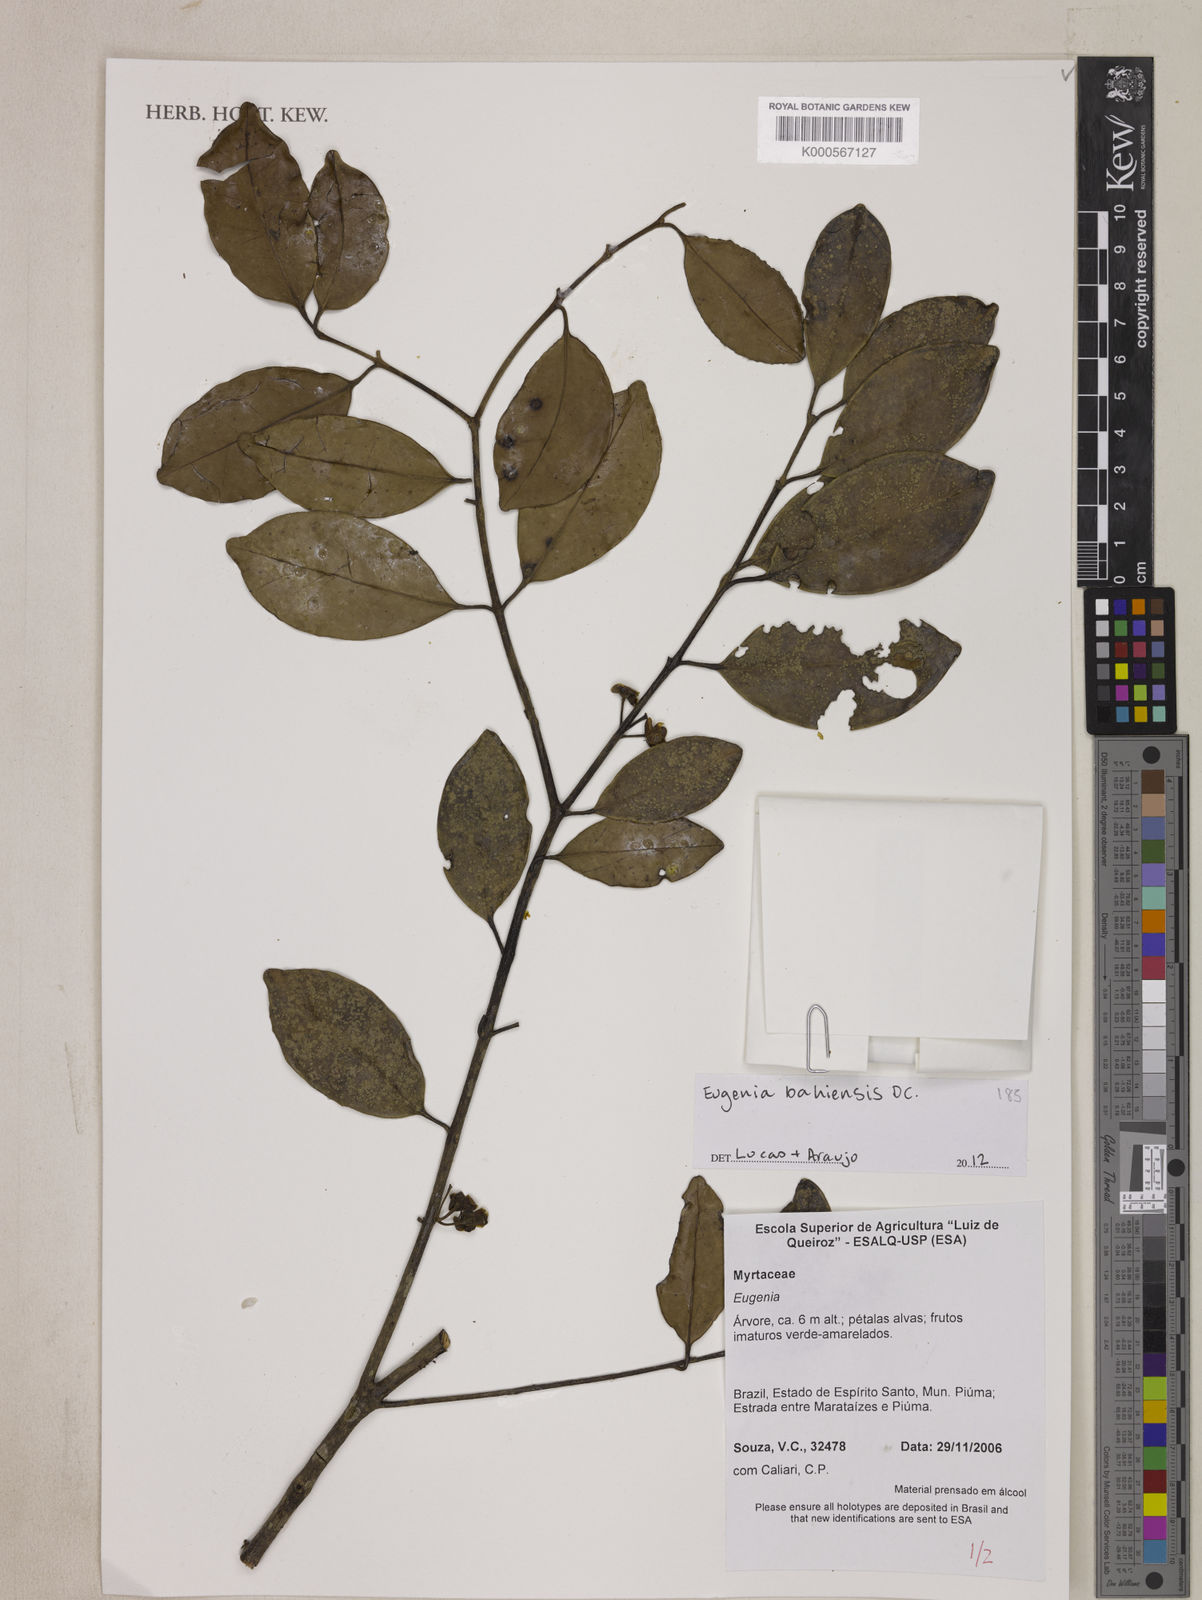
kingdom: Plantae
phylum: Tracheophyta
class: Magnoliopsida
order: Myrtales
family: Myrtaceae
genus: Eugenia
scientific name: Eugenia bahiensis
